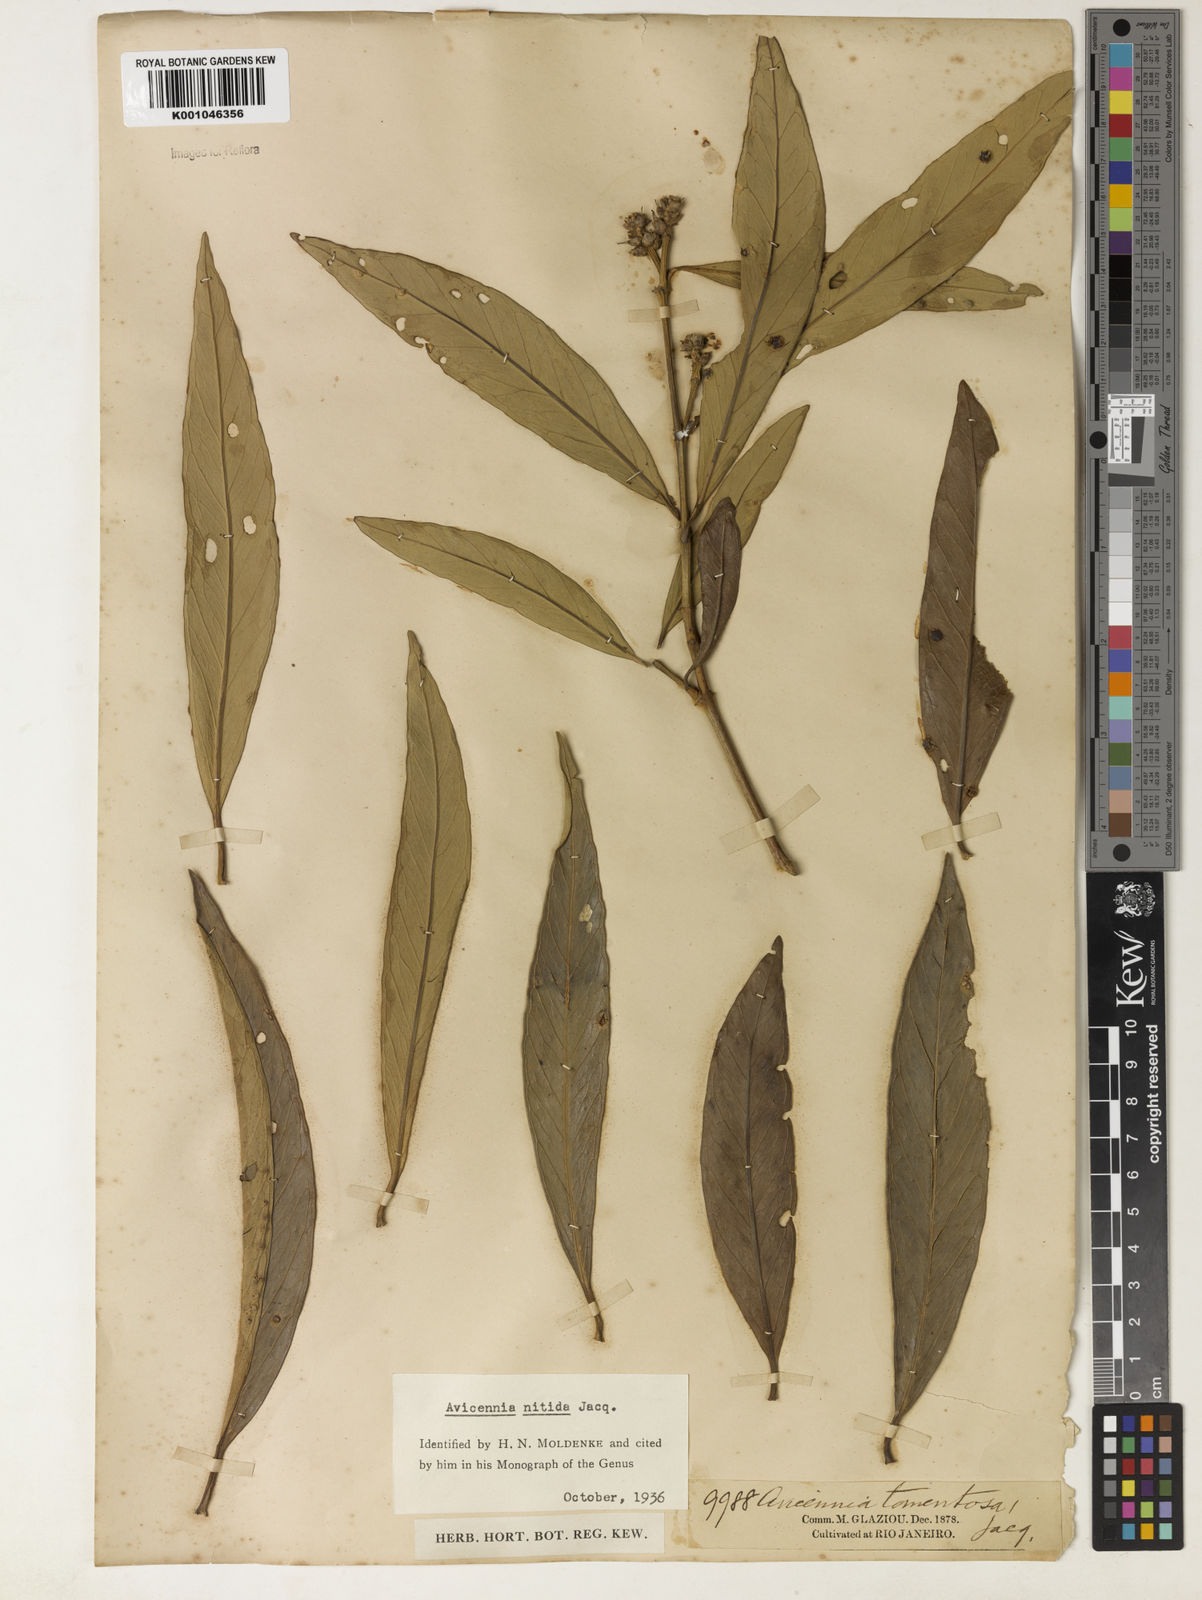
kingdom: Plantae
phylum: Tracheophyta
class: Magnoliopsida
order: Lamiales
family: Acanthaceae
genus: Avicennia
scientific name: Avicennia germinans
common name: Black mangrove
